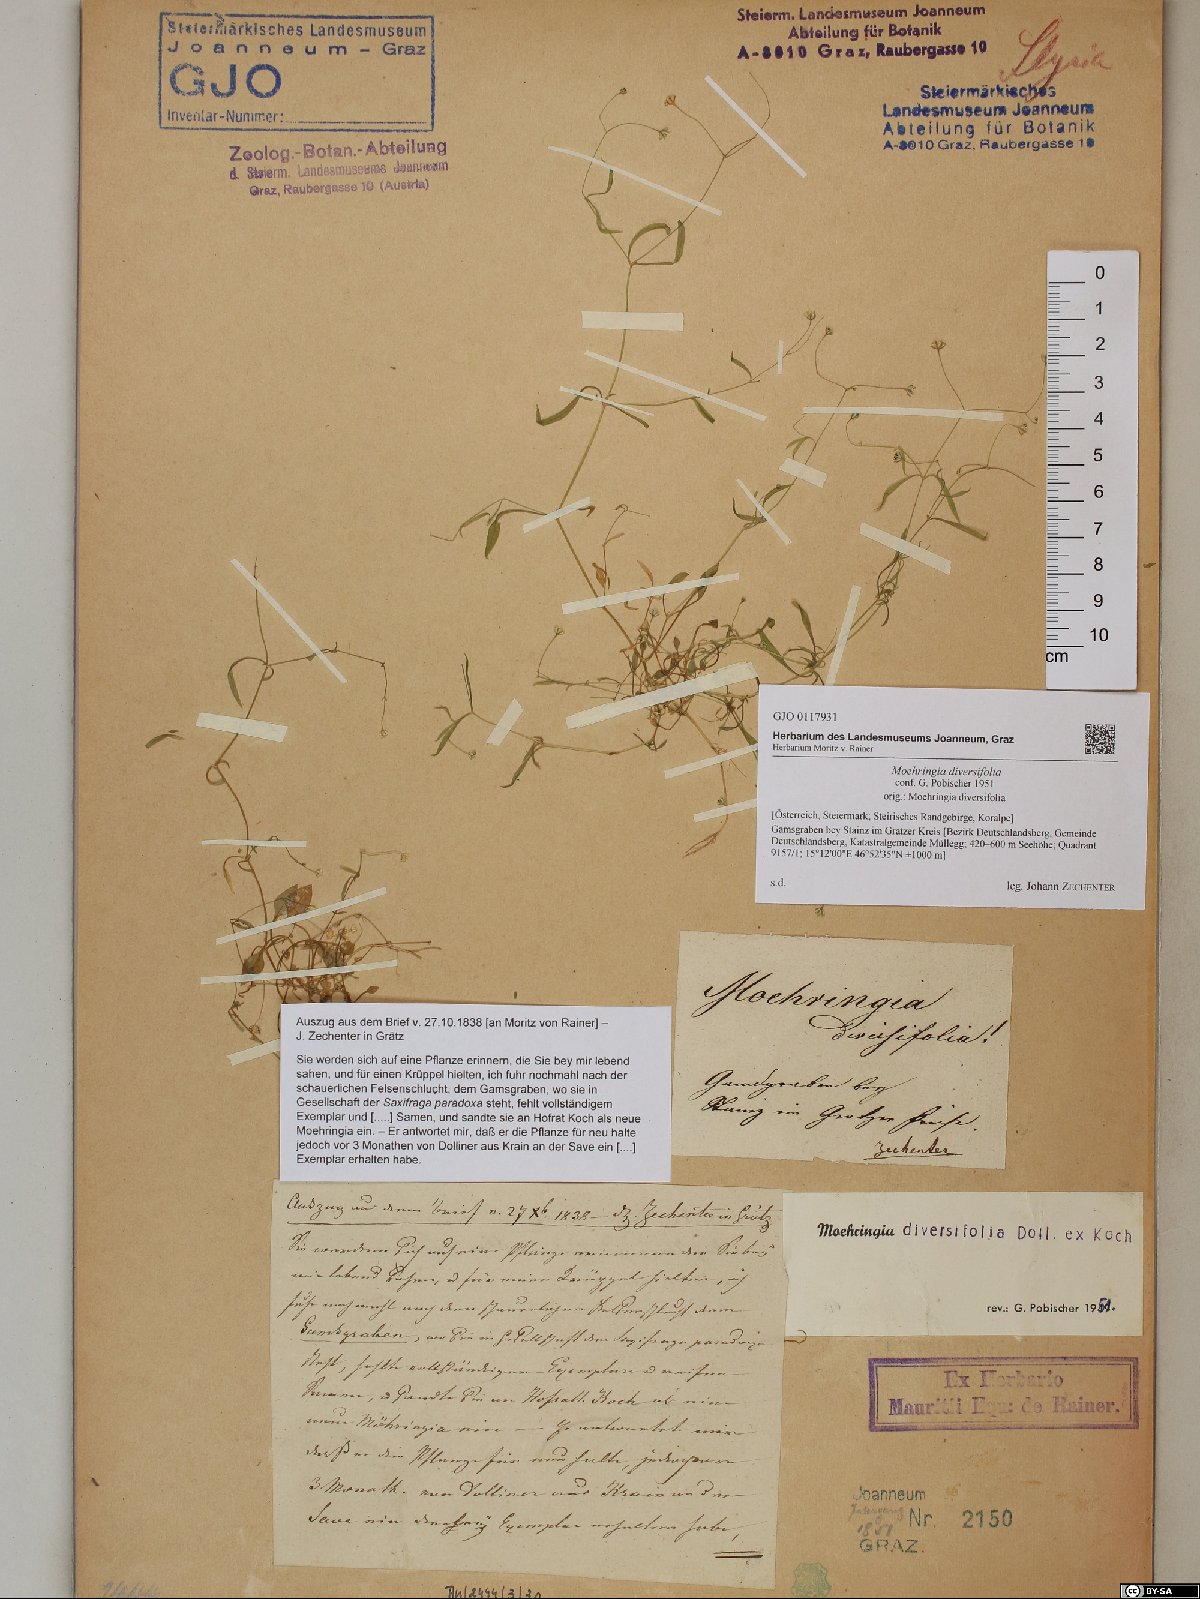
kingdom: Plantae
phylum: Tracheophyta
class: Magnoliopsida
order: Caryophyllales
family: Caryophyllaceae
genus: Moehringia
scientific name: Moehringia diversifolia
